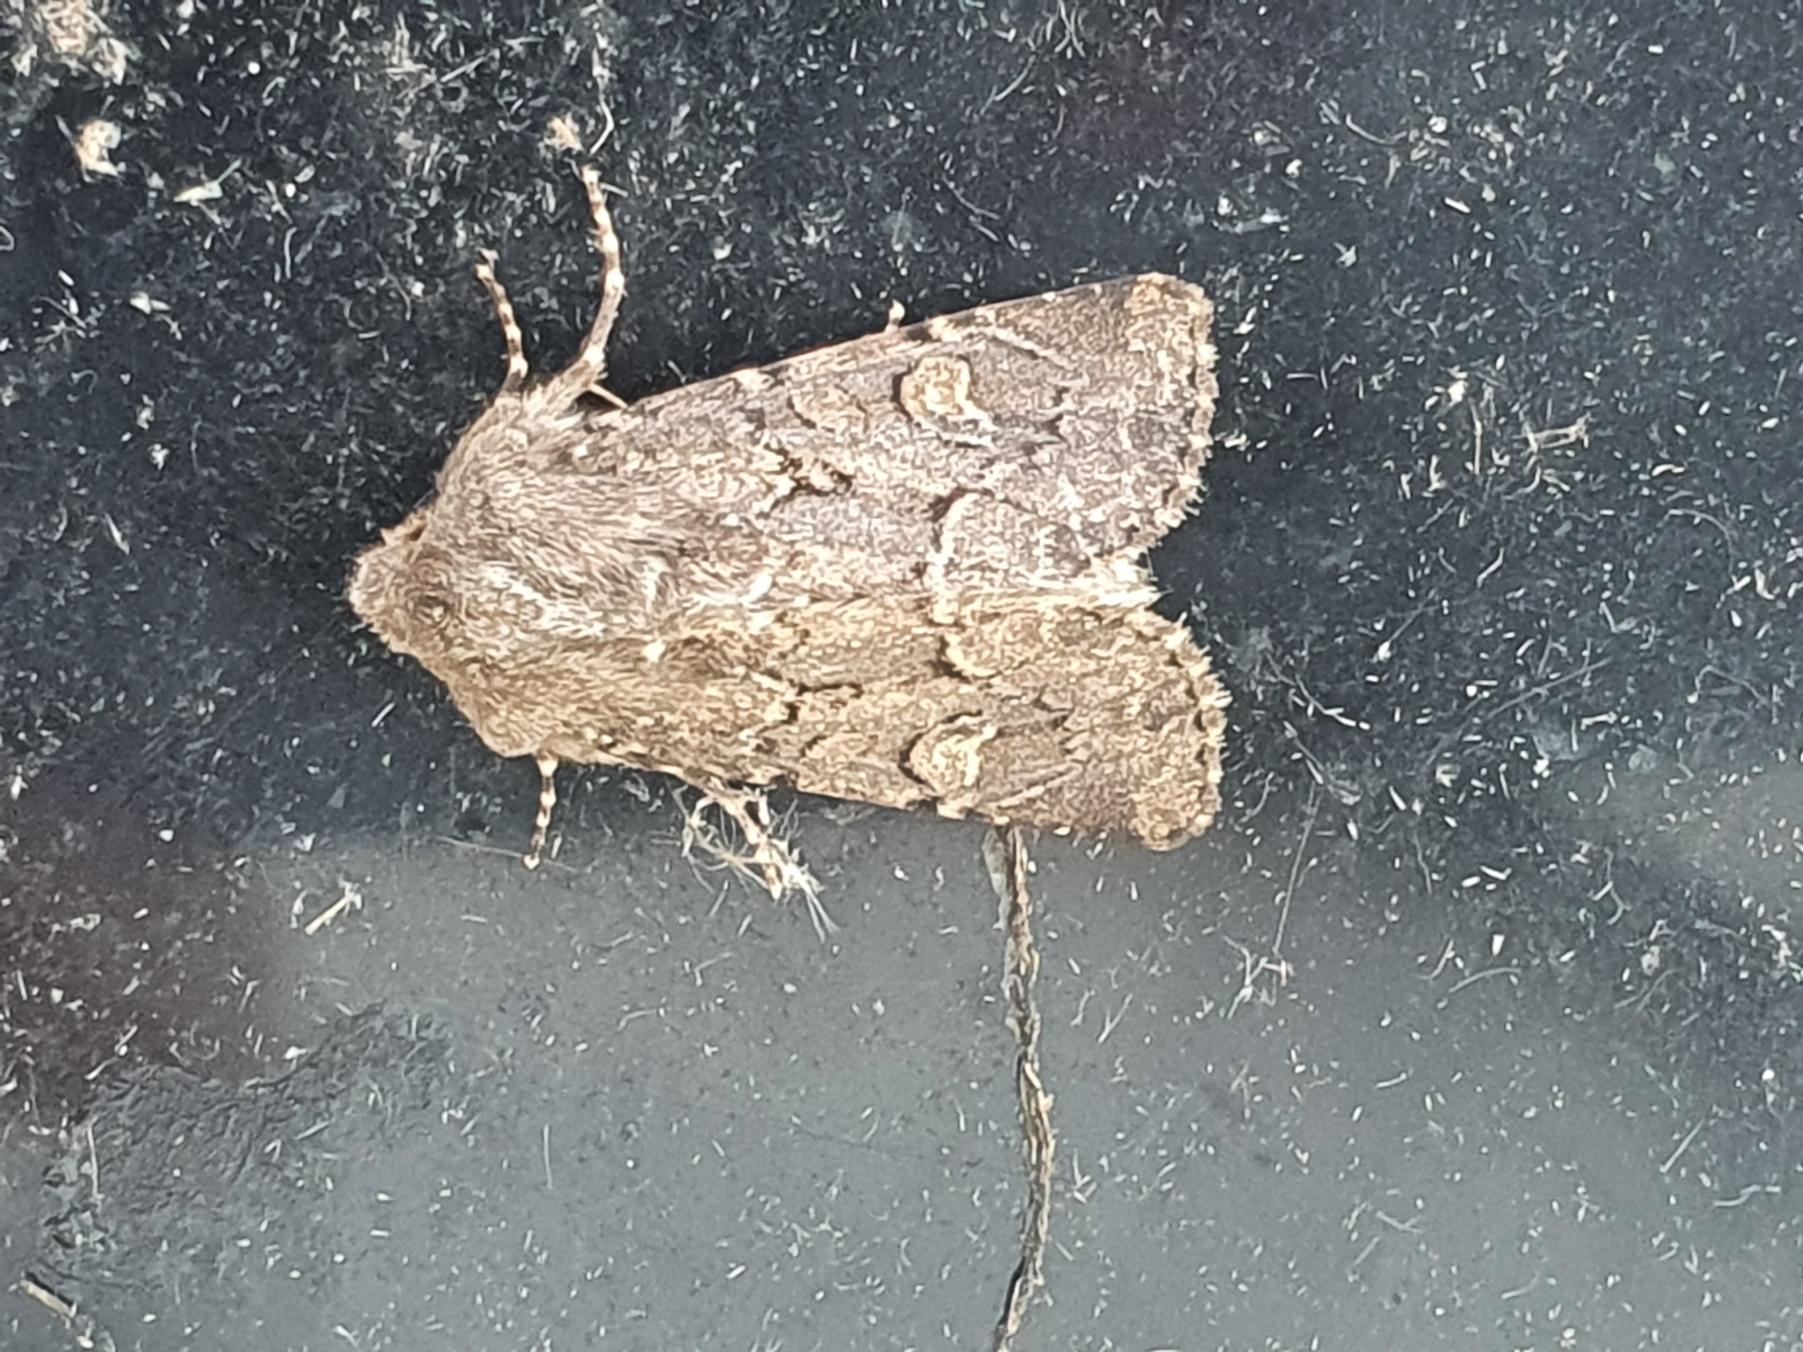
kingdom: Animalia
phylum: Arthropoda
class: Insecta
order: Lepidoptera
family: Noctuidae
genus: Luperina
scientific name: Luperina testacea
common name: Frøgræsugle
